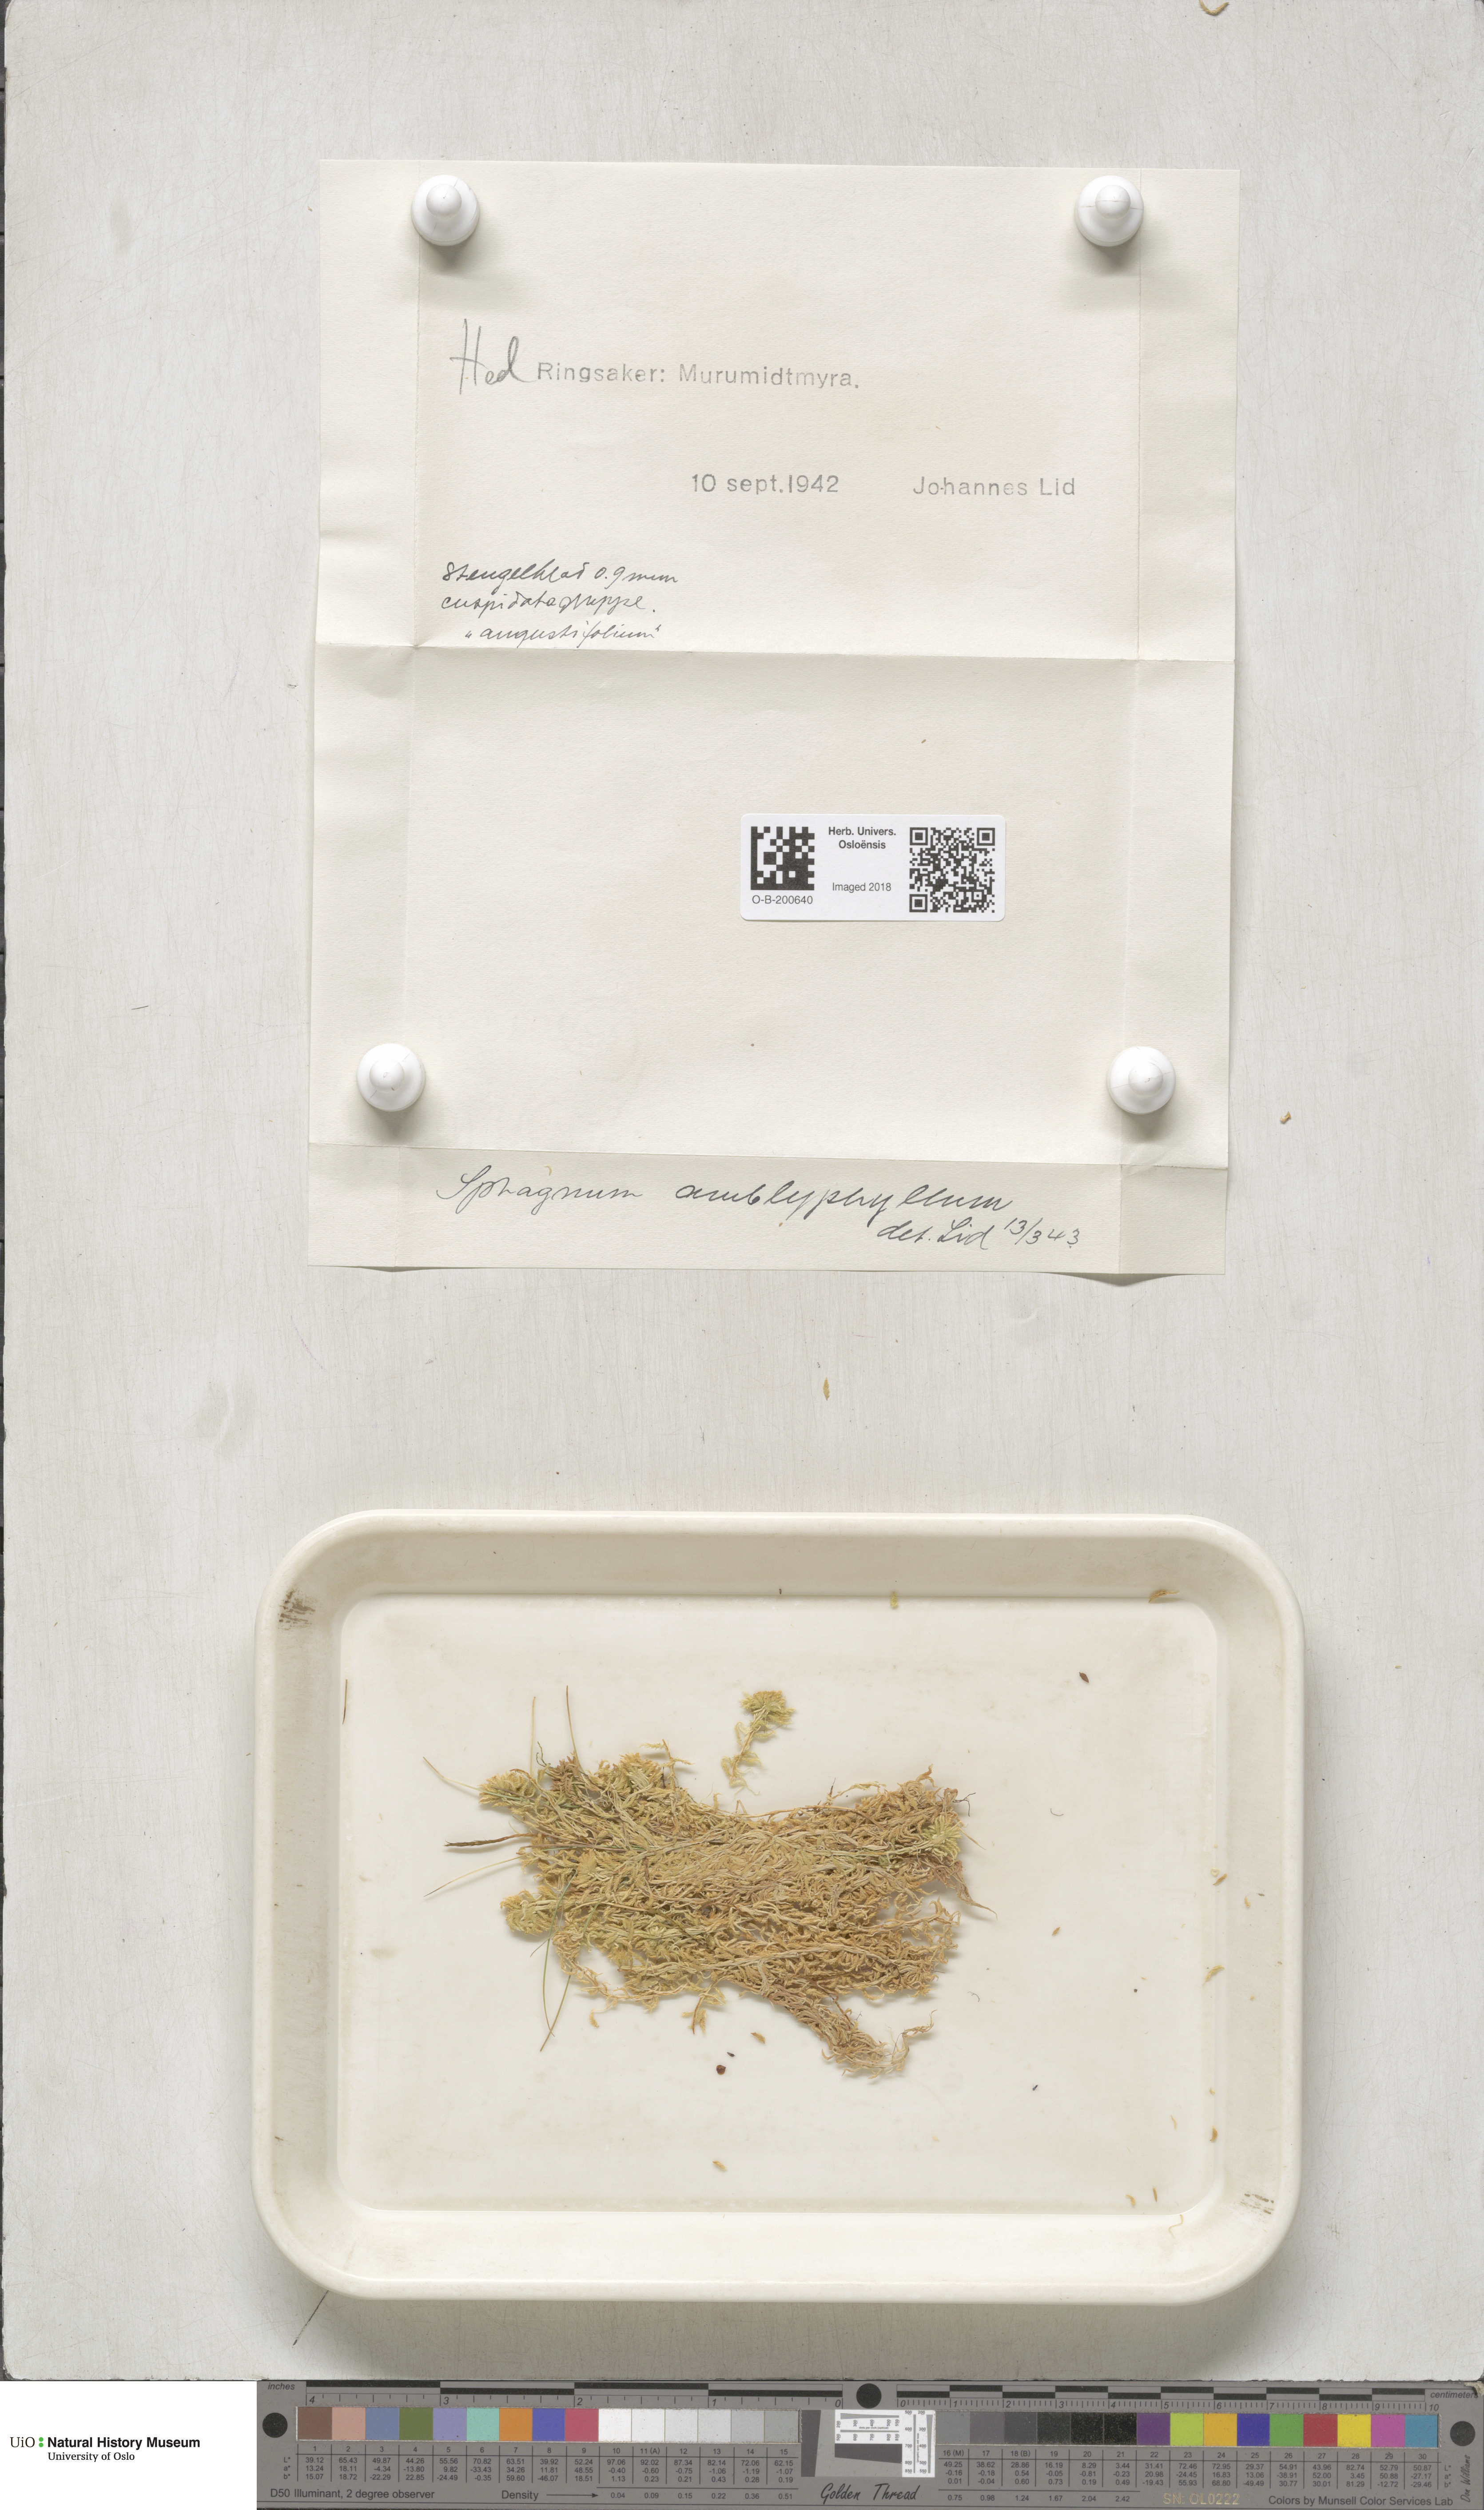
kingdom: Plantae
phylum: Bryophyta
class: Sphagnopsida
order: Sphagnales
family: Sphagnaceae
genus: Sphagnum
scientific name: Sphagnum flexuosum
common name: Flexible peat moss
